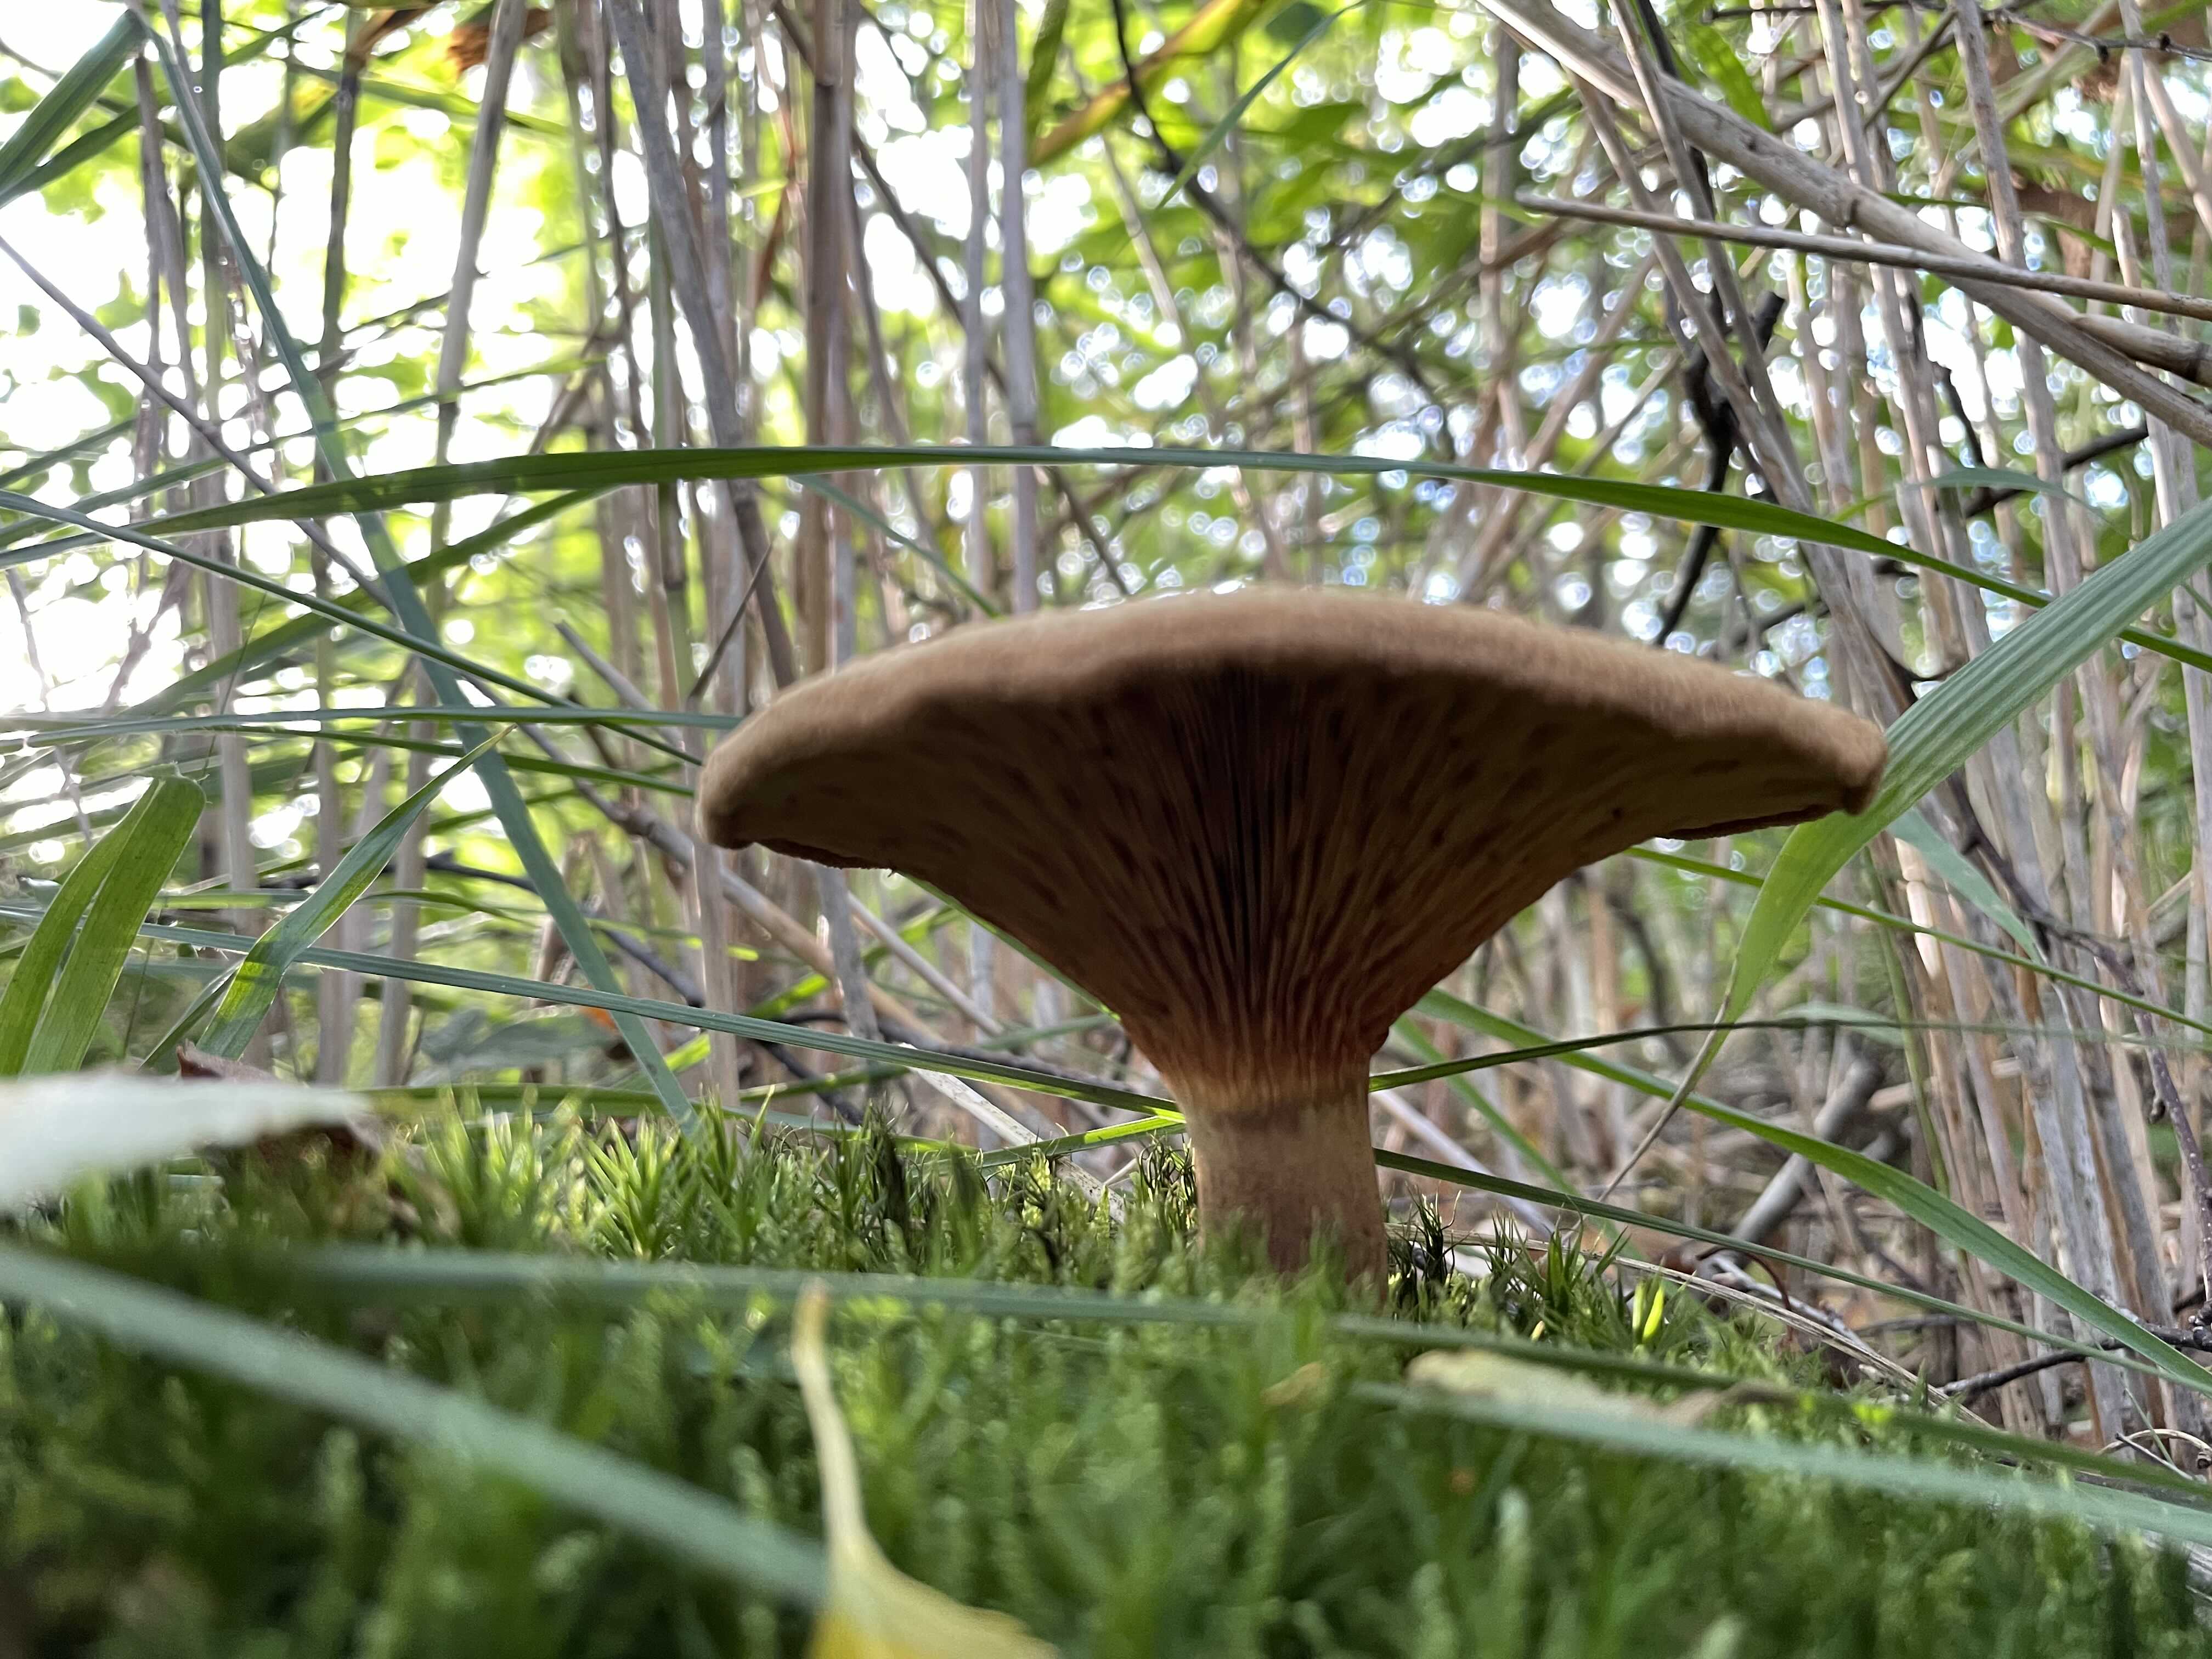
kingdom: Fungi
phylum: Basidiomycota
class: Agaricomycetes
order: Boletales
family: Paxillaceae
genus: Paxillus
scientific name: Paxillus
